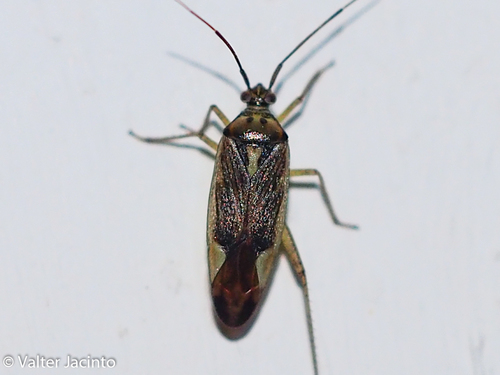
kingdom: Animalia
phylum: Arthropoda
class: Insecta
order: Hemiptera
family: Miridae
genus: Closterotomus
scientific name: Closterotomus trivialis
